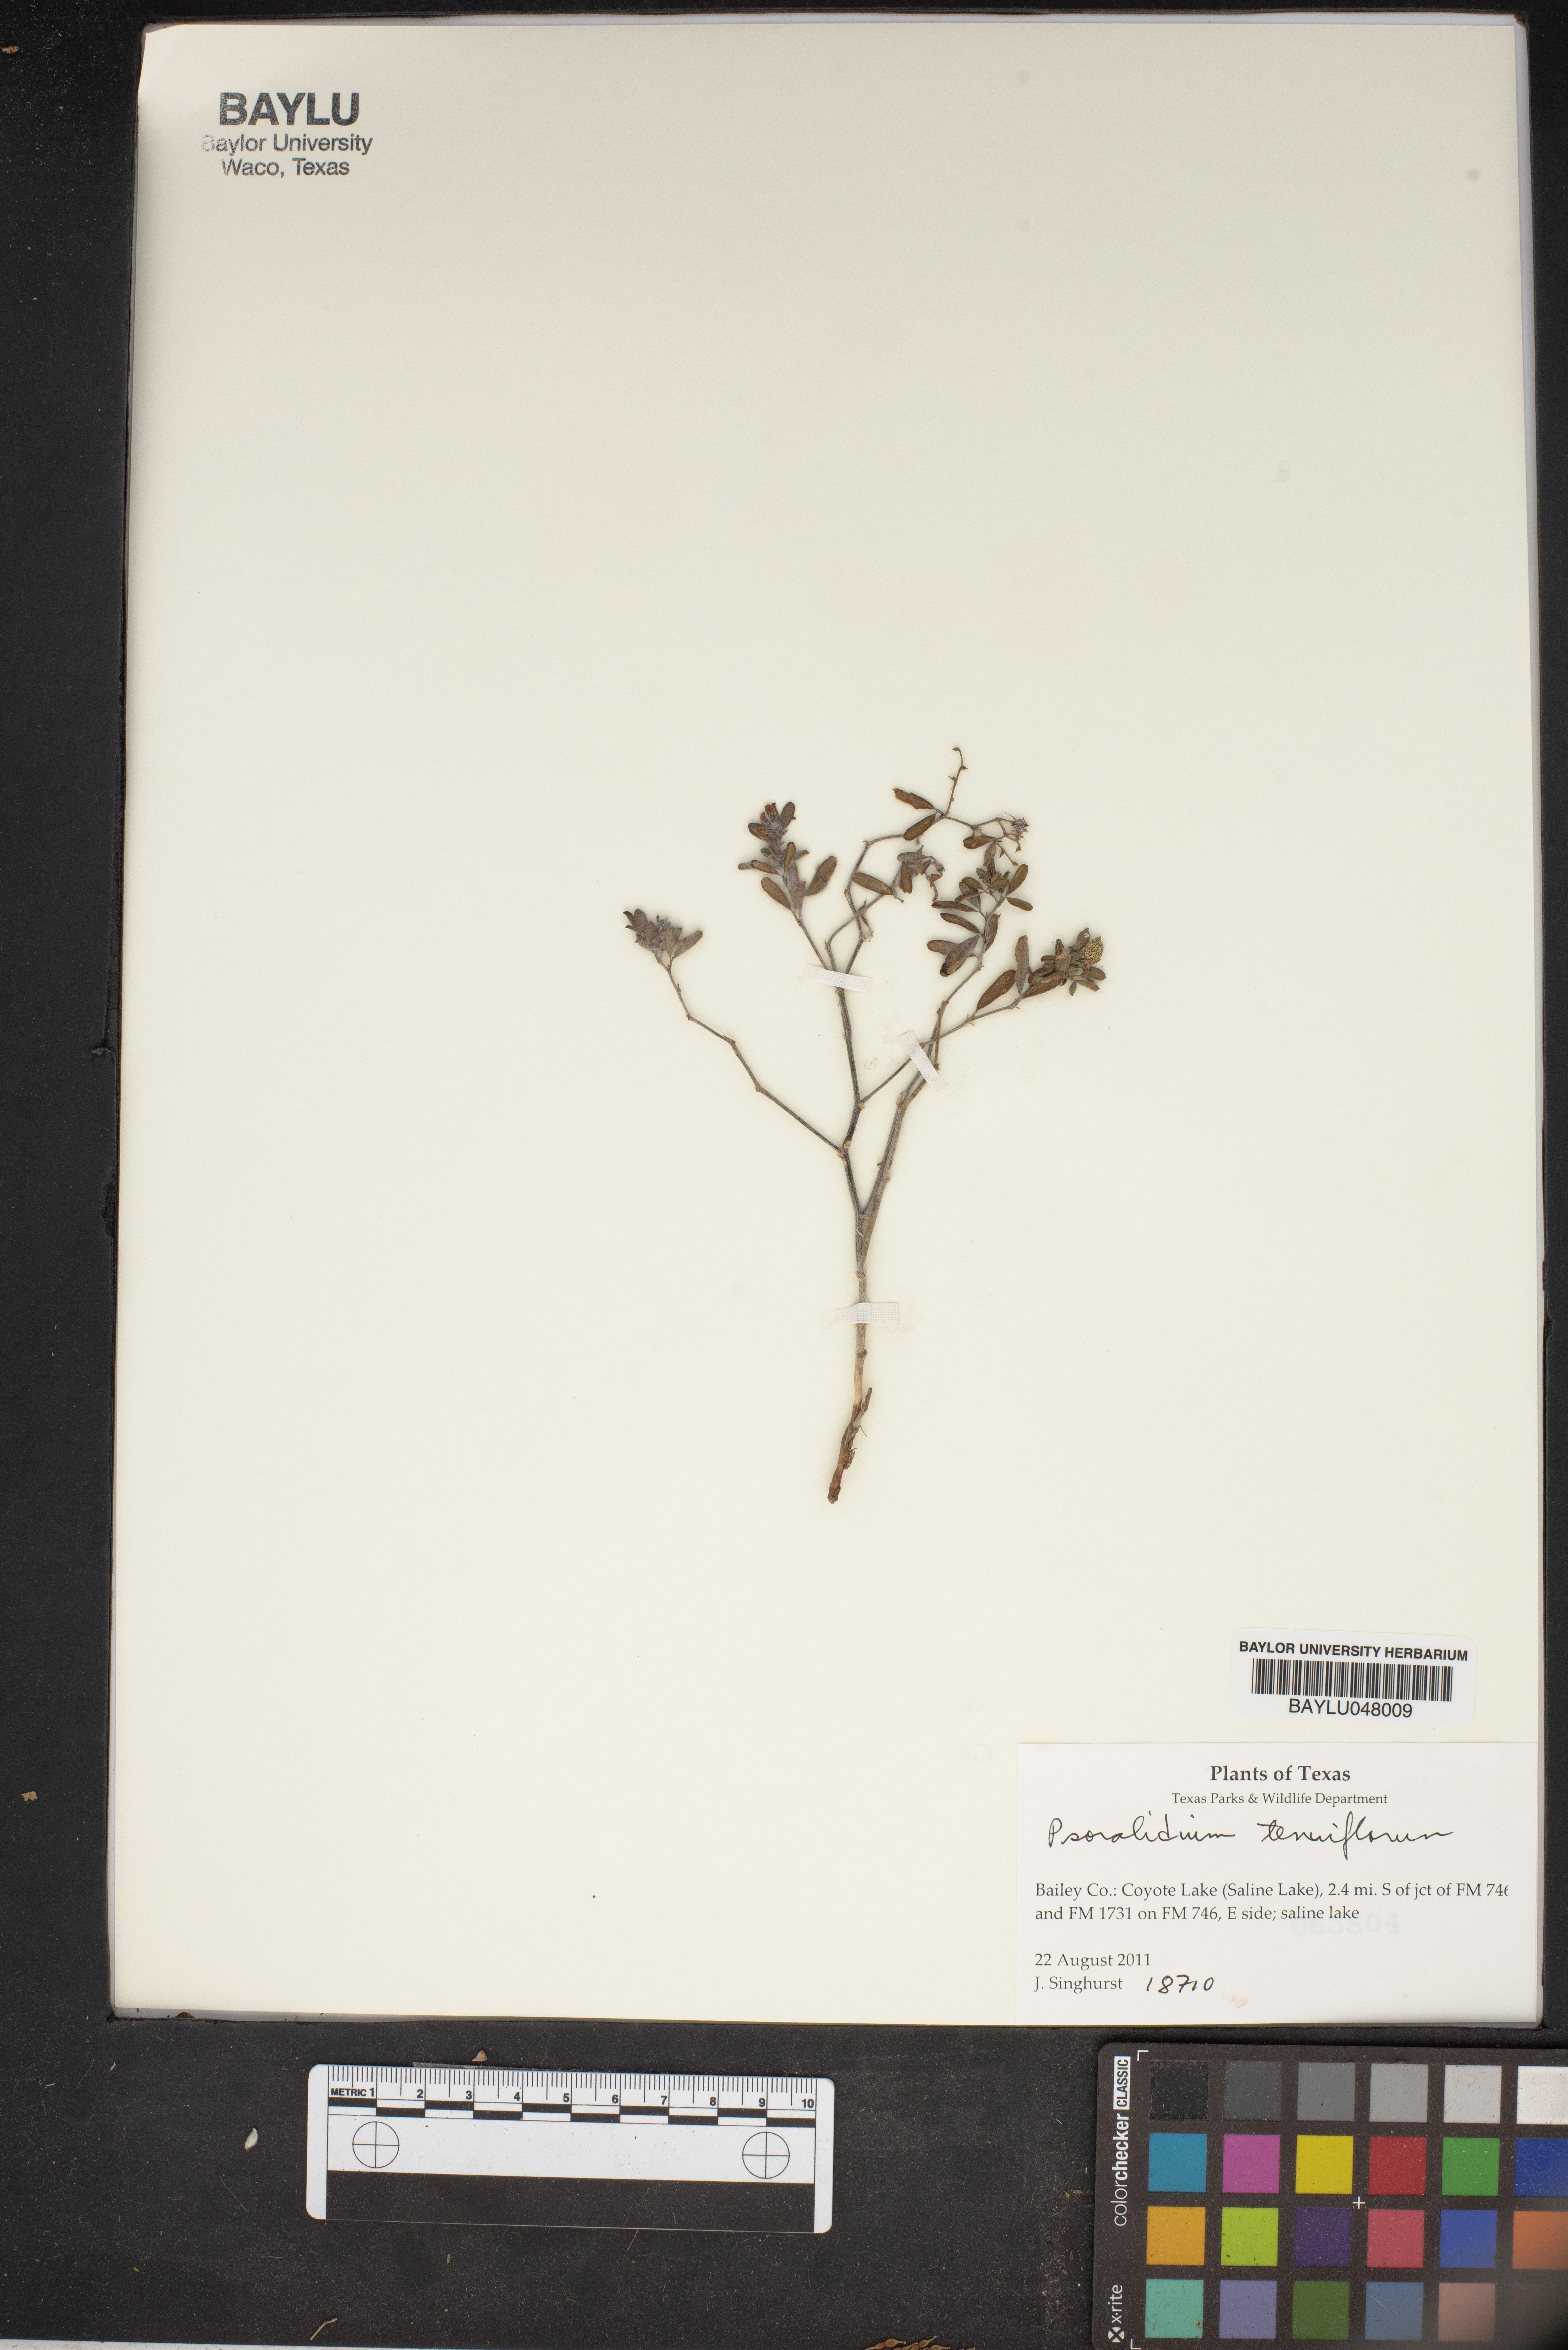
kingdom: Plantae
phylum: Tracheophyta
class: Magnoliopsida
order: Fabales
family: Fabaceae
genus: Pediomelum
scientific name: Pediomelum tenuiflorum
